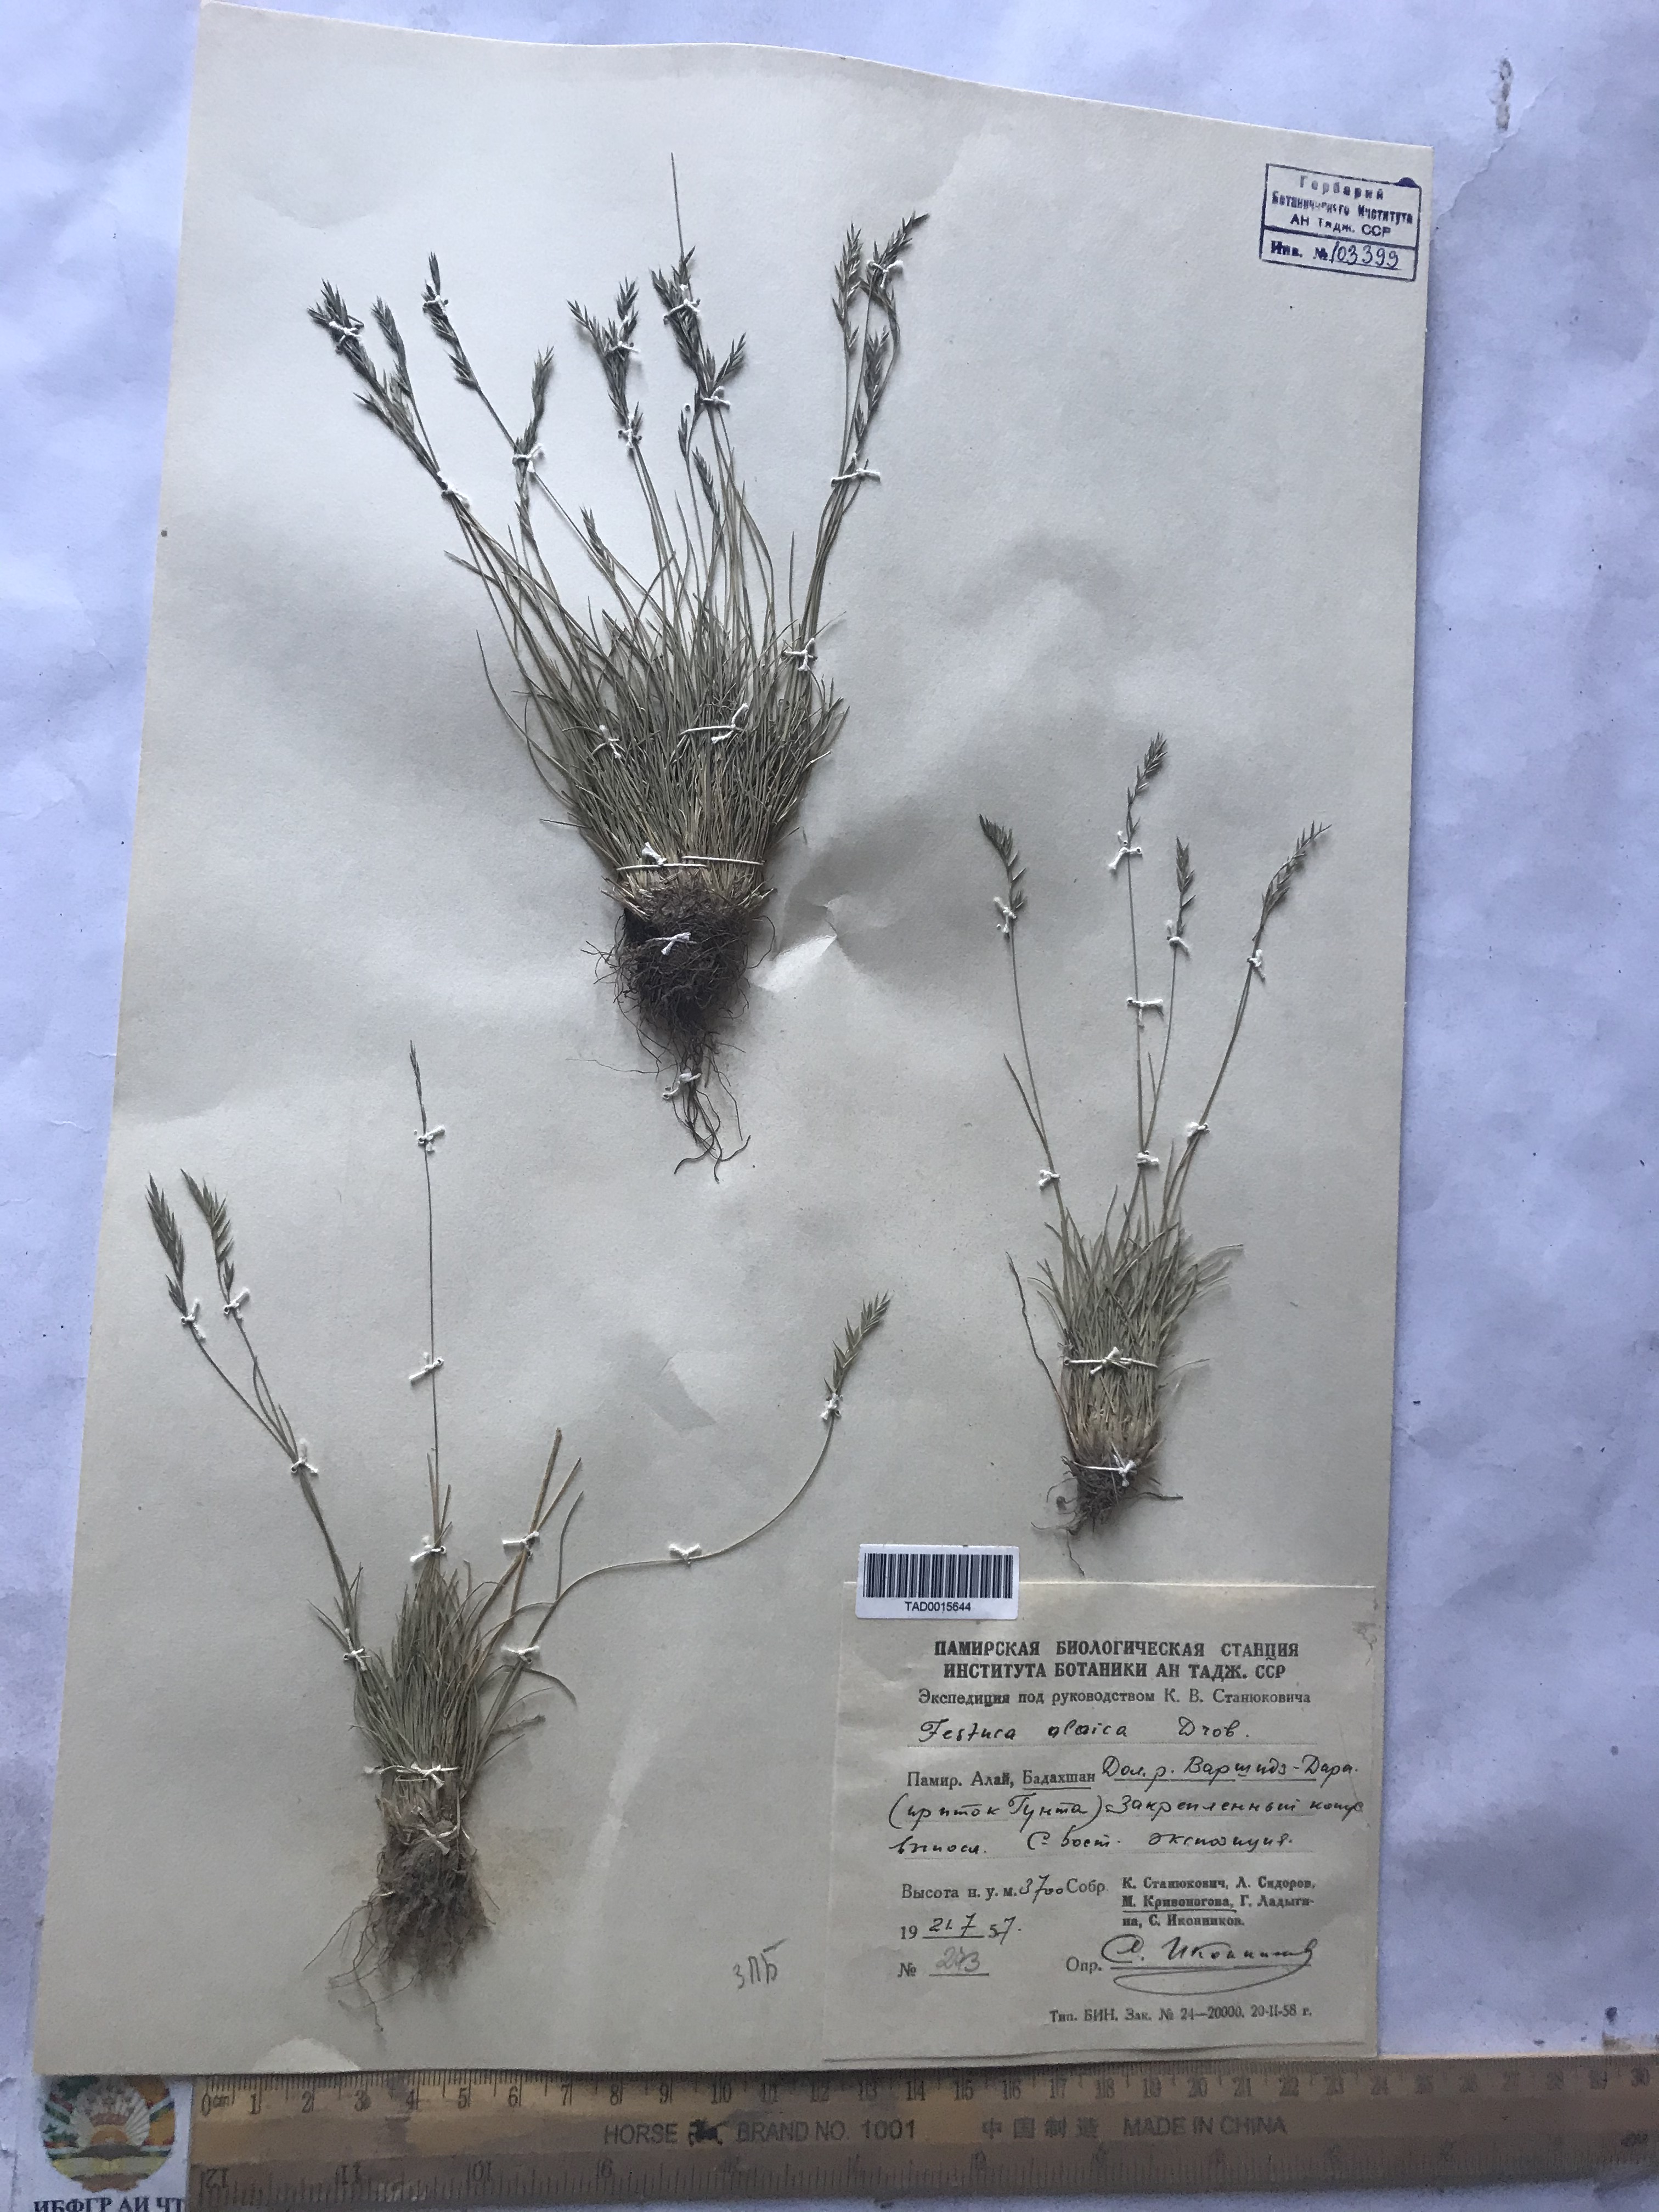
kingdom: Plantae
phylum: Tracheophyta
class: Liliopsida
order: Poales
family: Poaceae
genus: Festuca
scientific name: Festuca alaica
